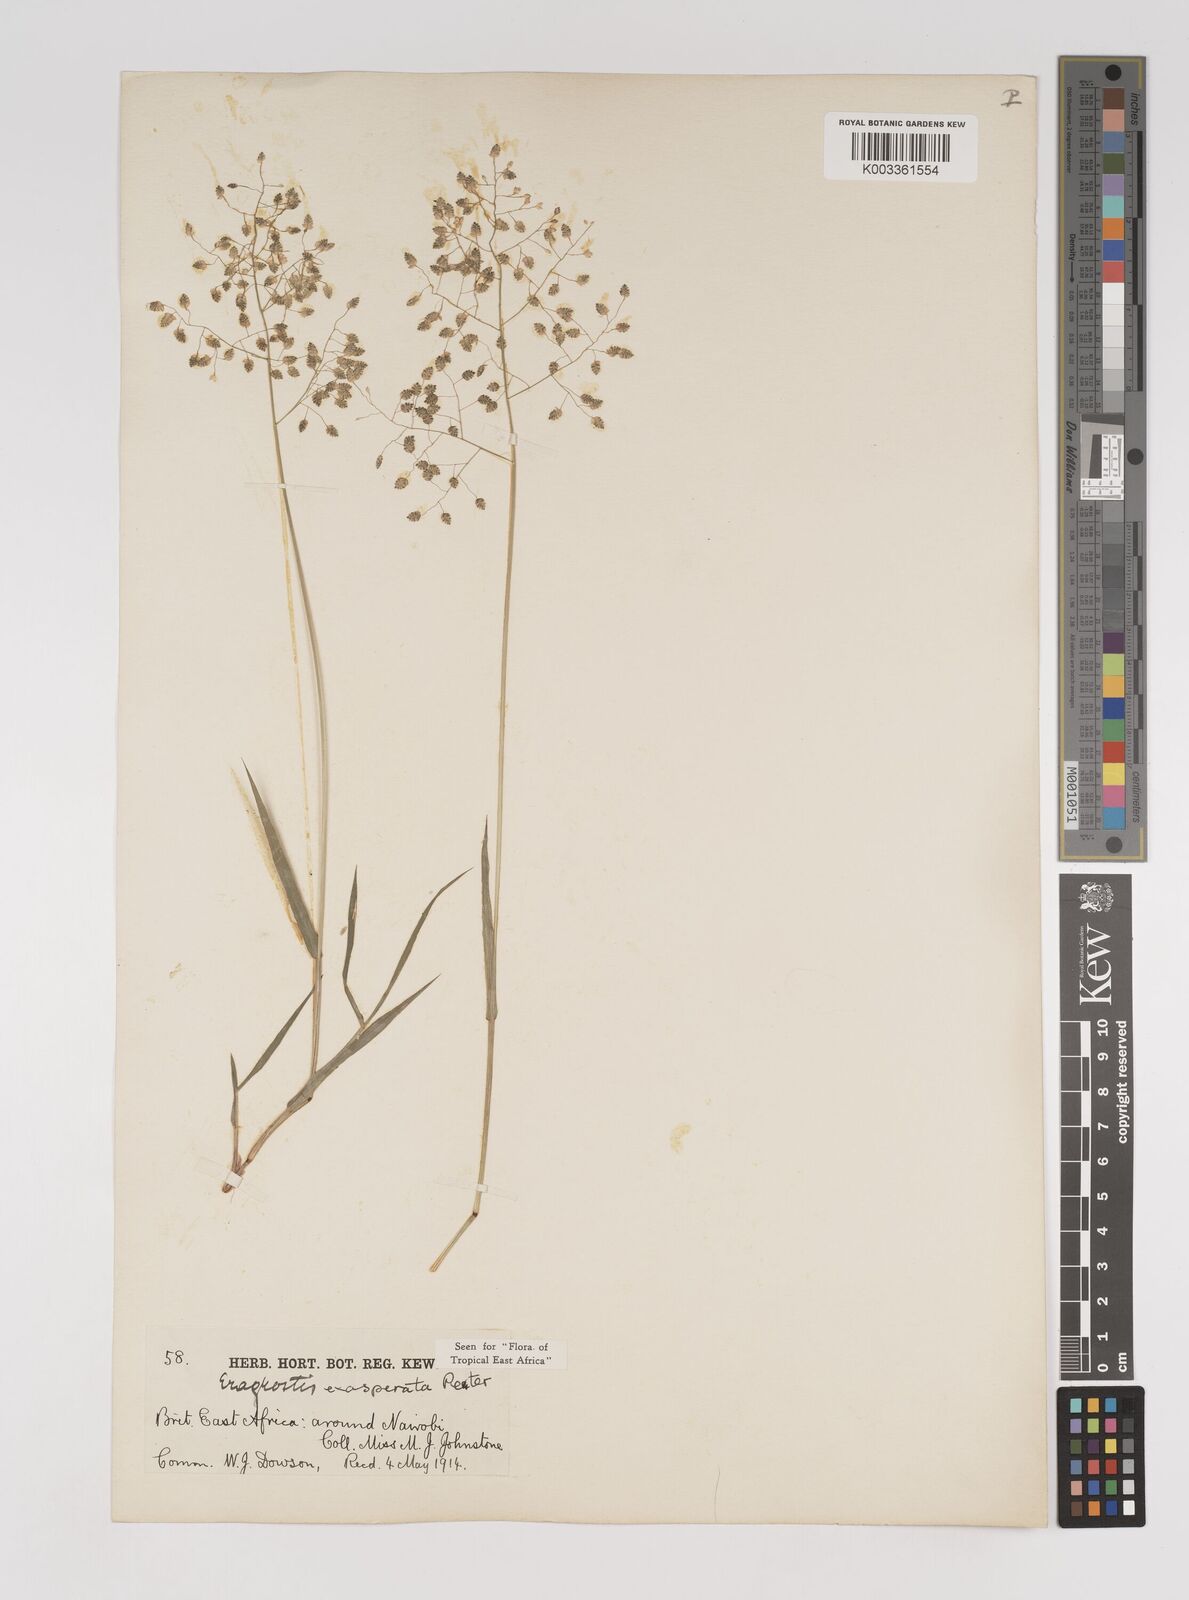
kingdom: Plantae
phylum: Tracheophyta
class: Liliopsida
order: Poales
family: Poaceae
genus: Eragrostis
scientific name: Eragrostis exasperata
